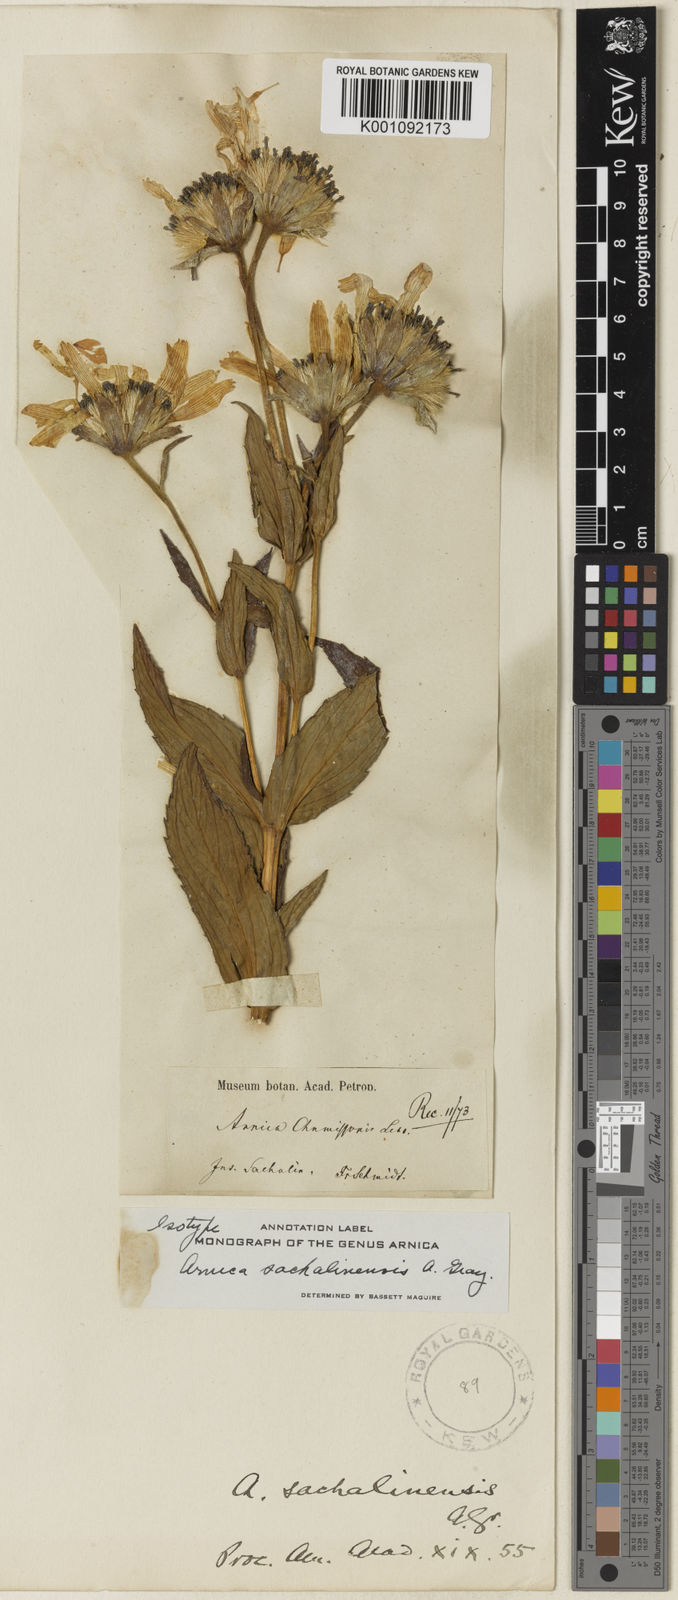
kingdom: Plantae
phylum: Tracheophyta
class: Magnoliopsida
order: Asterales
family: Asteraceae
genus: Arnica
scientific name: Arnica sachalinensis
